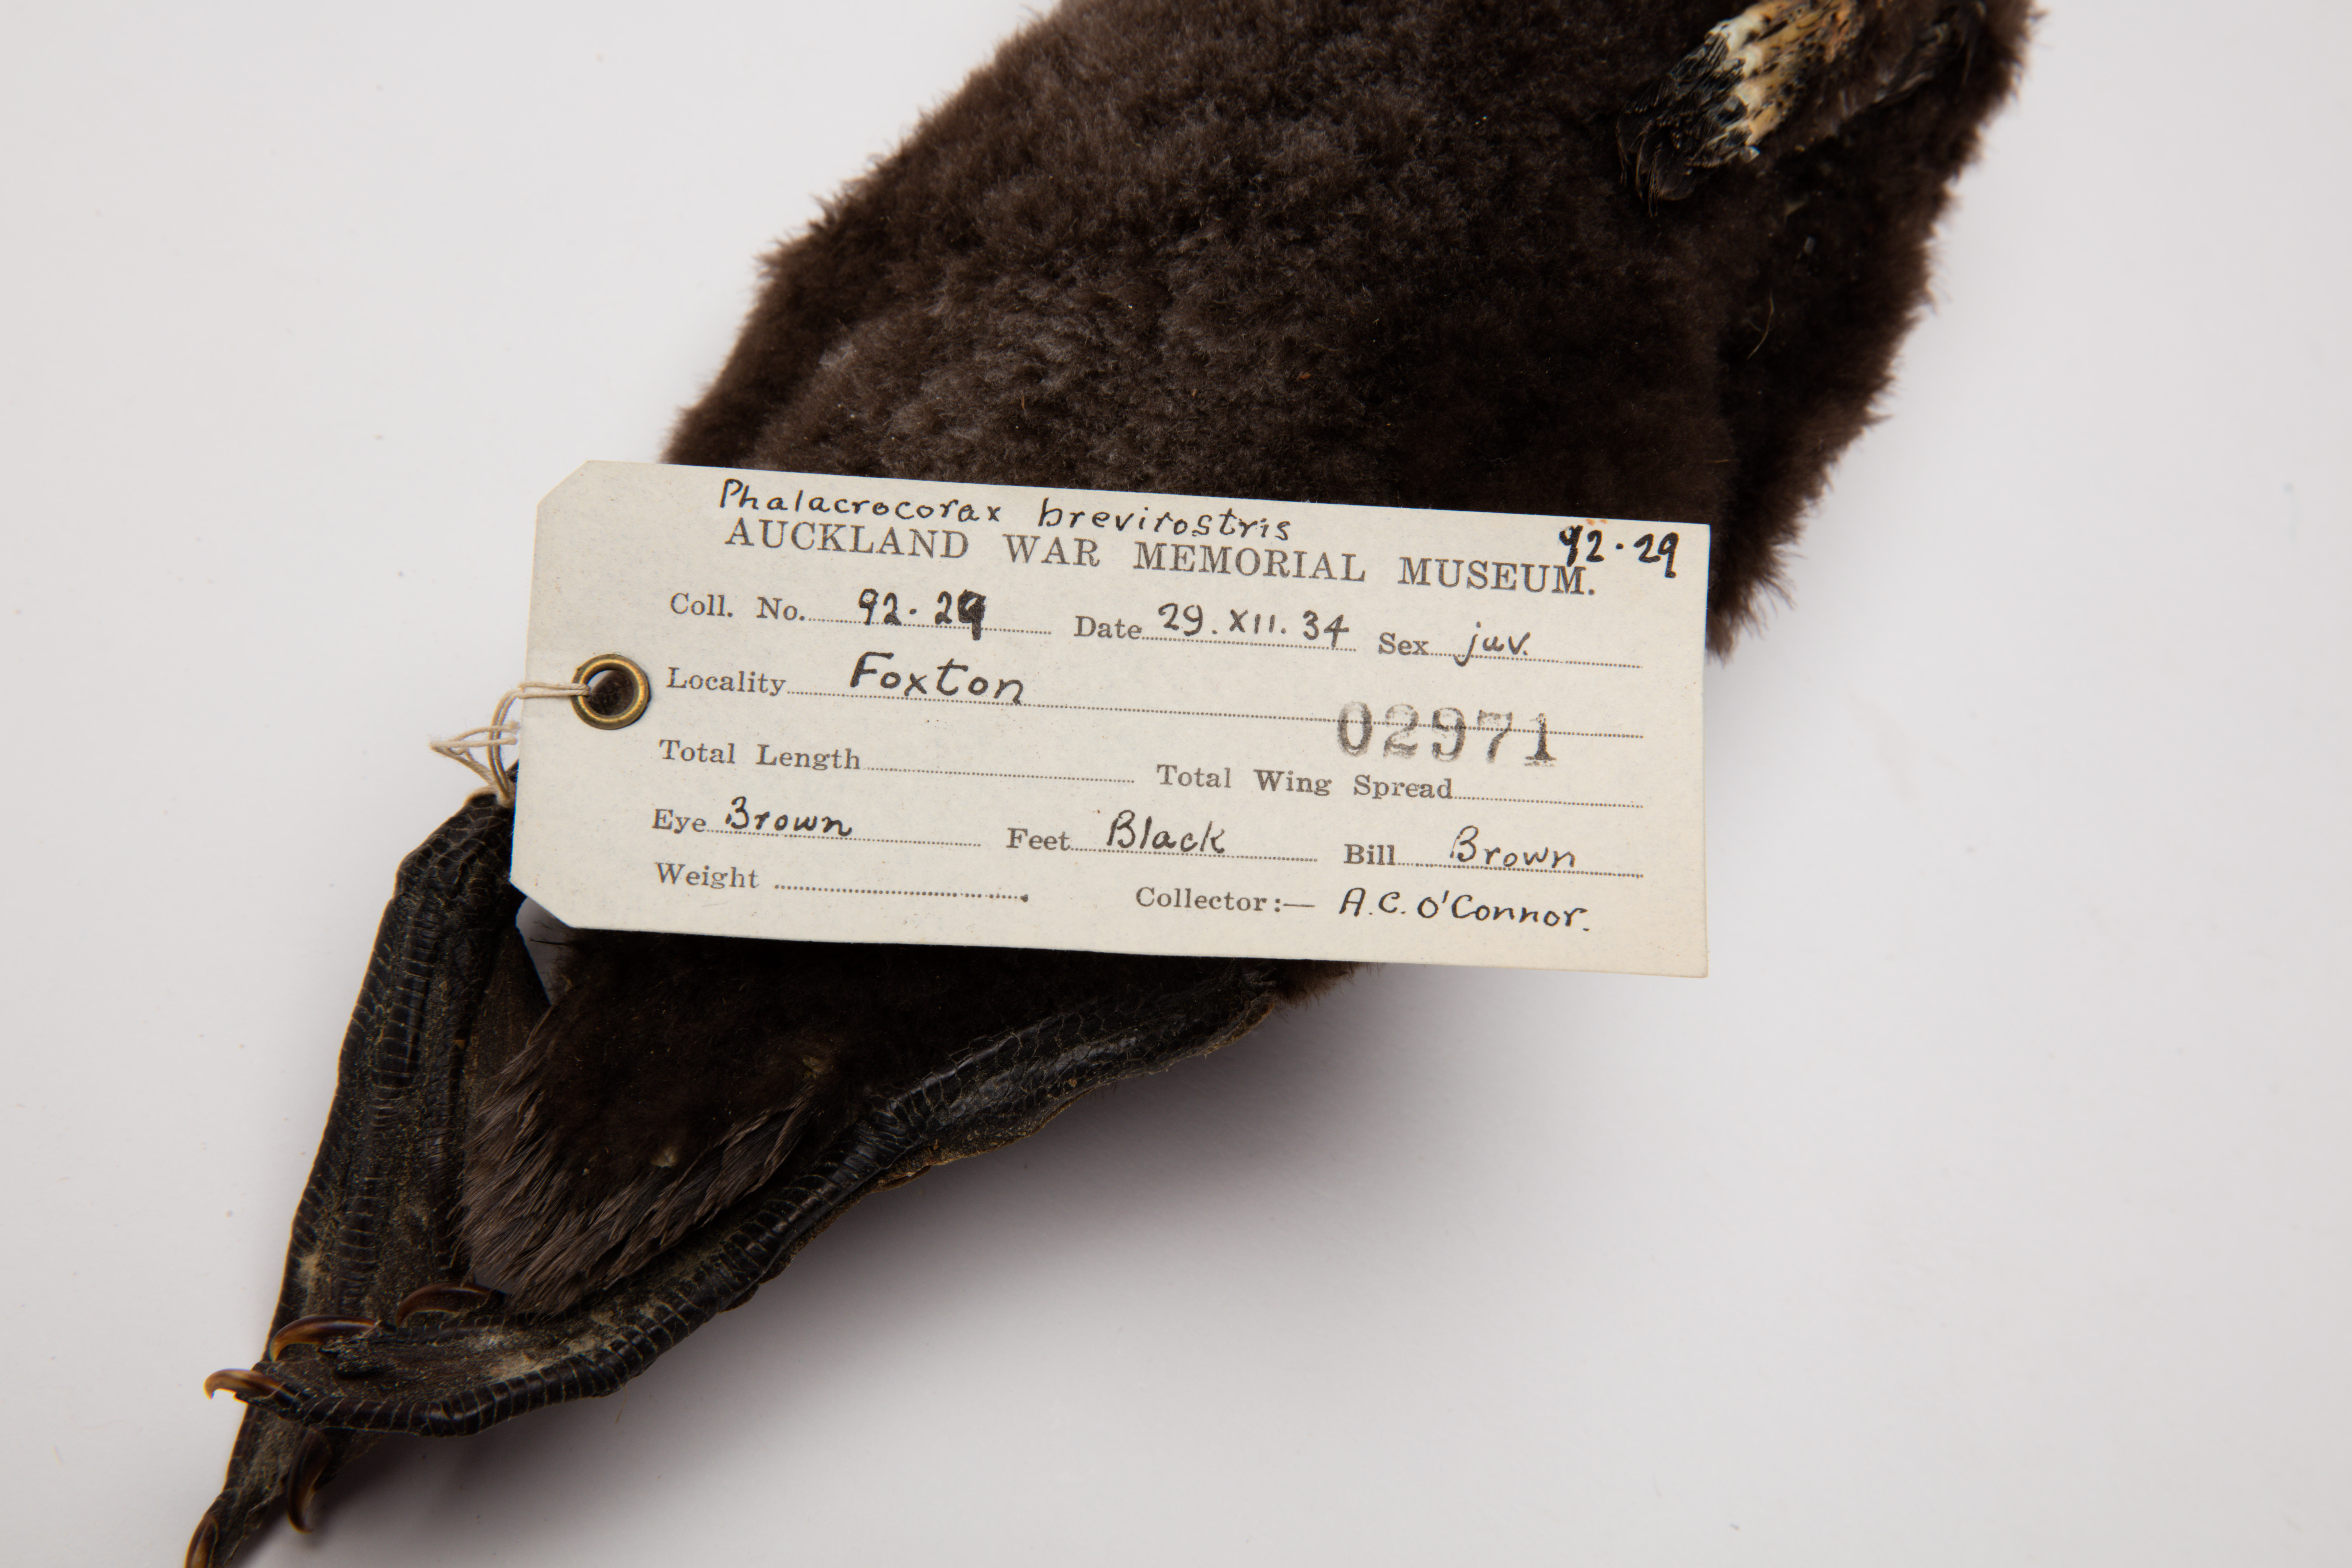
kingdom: Animalia
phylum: Chordata
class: Aves
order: Suliformes
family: Phalacrocoracidae
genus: Microcarbo
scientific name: Microcarbo melanoleucos
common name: Little pied cormorant
